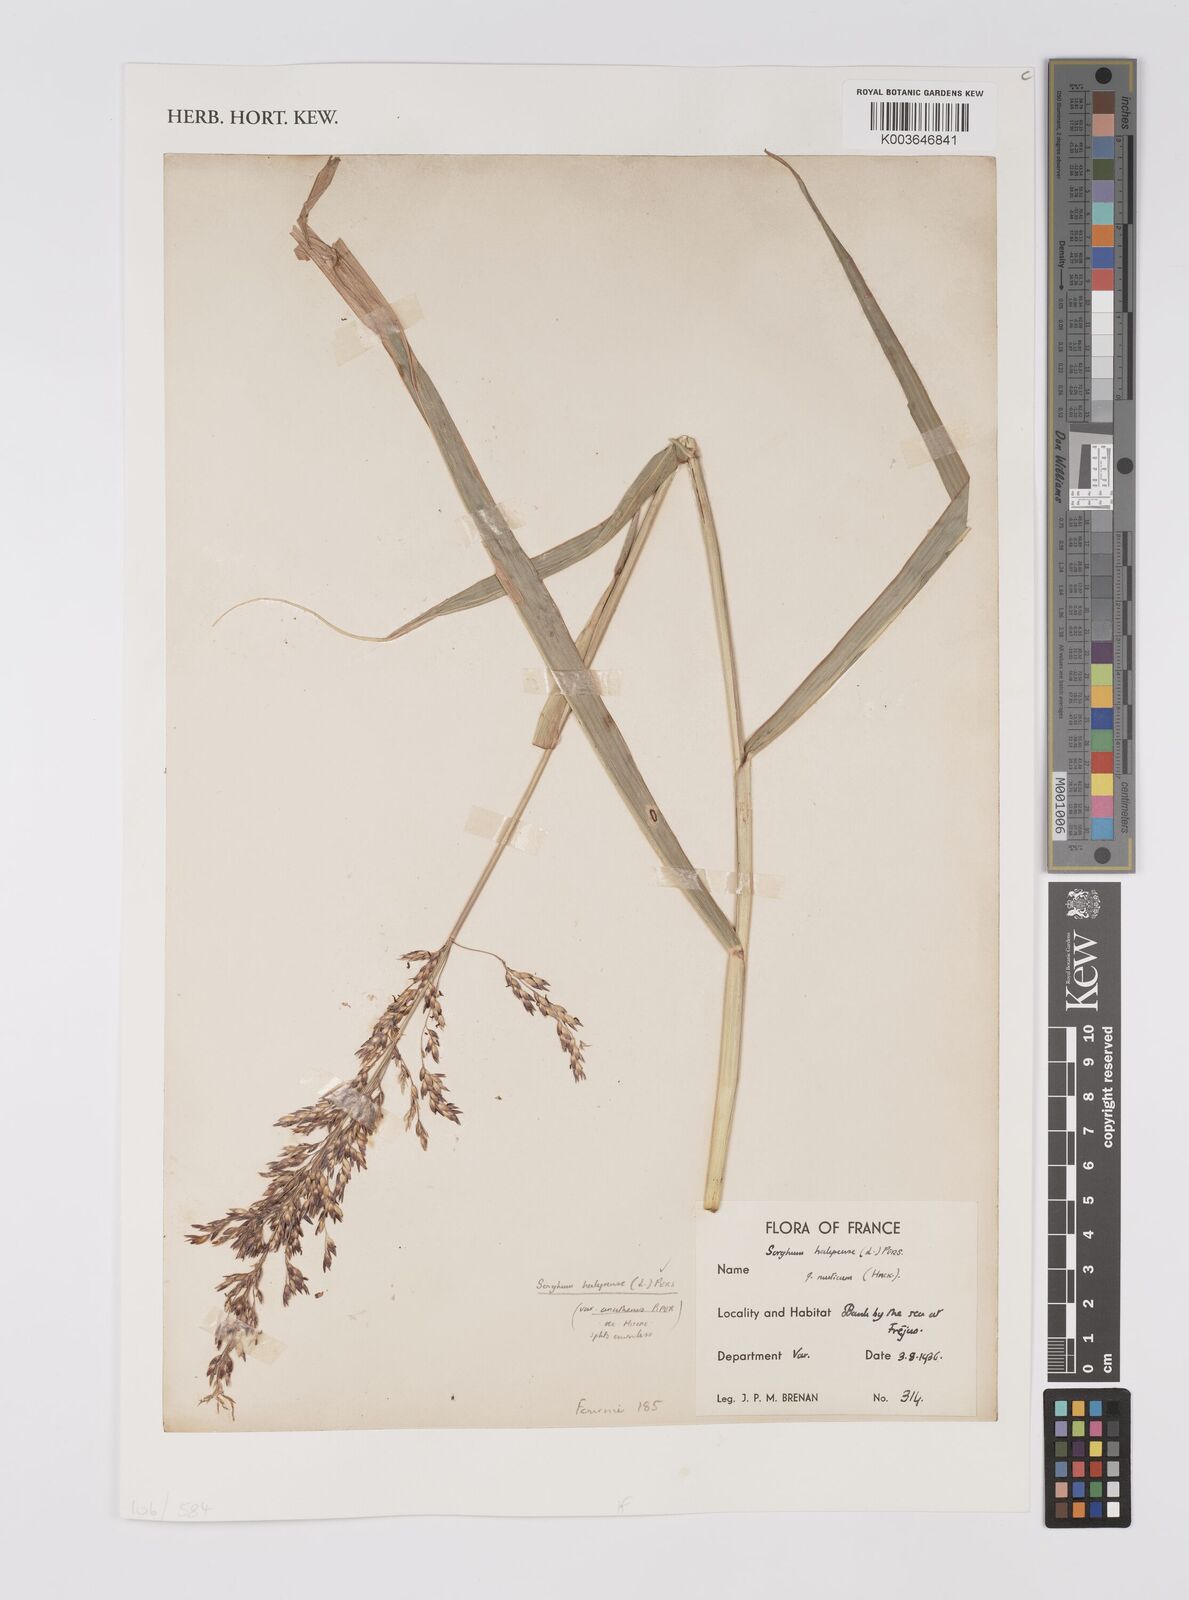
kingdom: Plantae
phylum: Tracheophyta
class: Liliopsida
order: Poales
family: Poaceae
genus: Sorghum
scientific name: Sorghum halepense
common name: Johnson-grass
